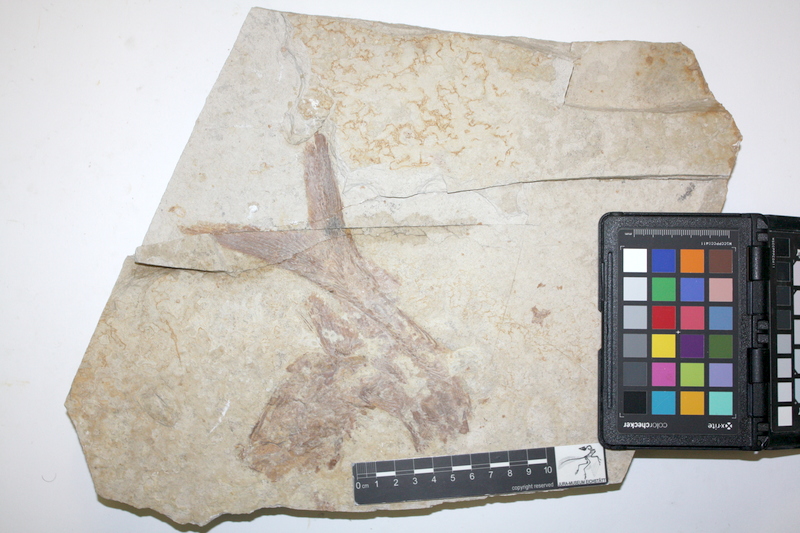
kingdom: Animalia
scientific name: Animalia
